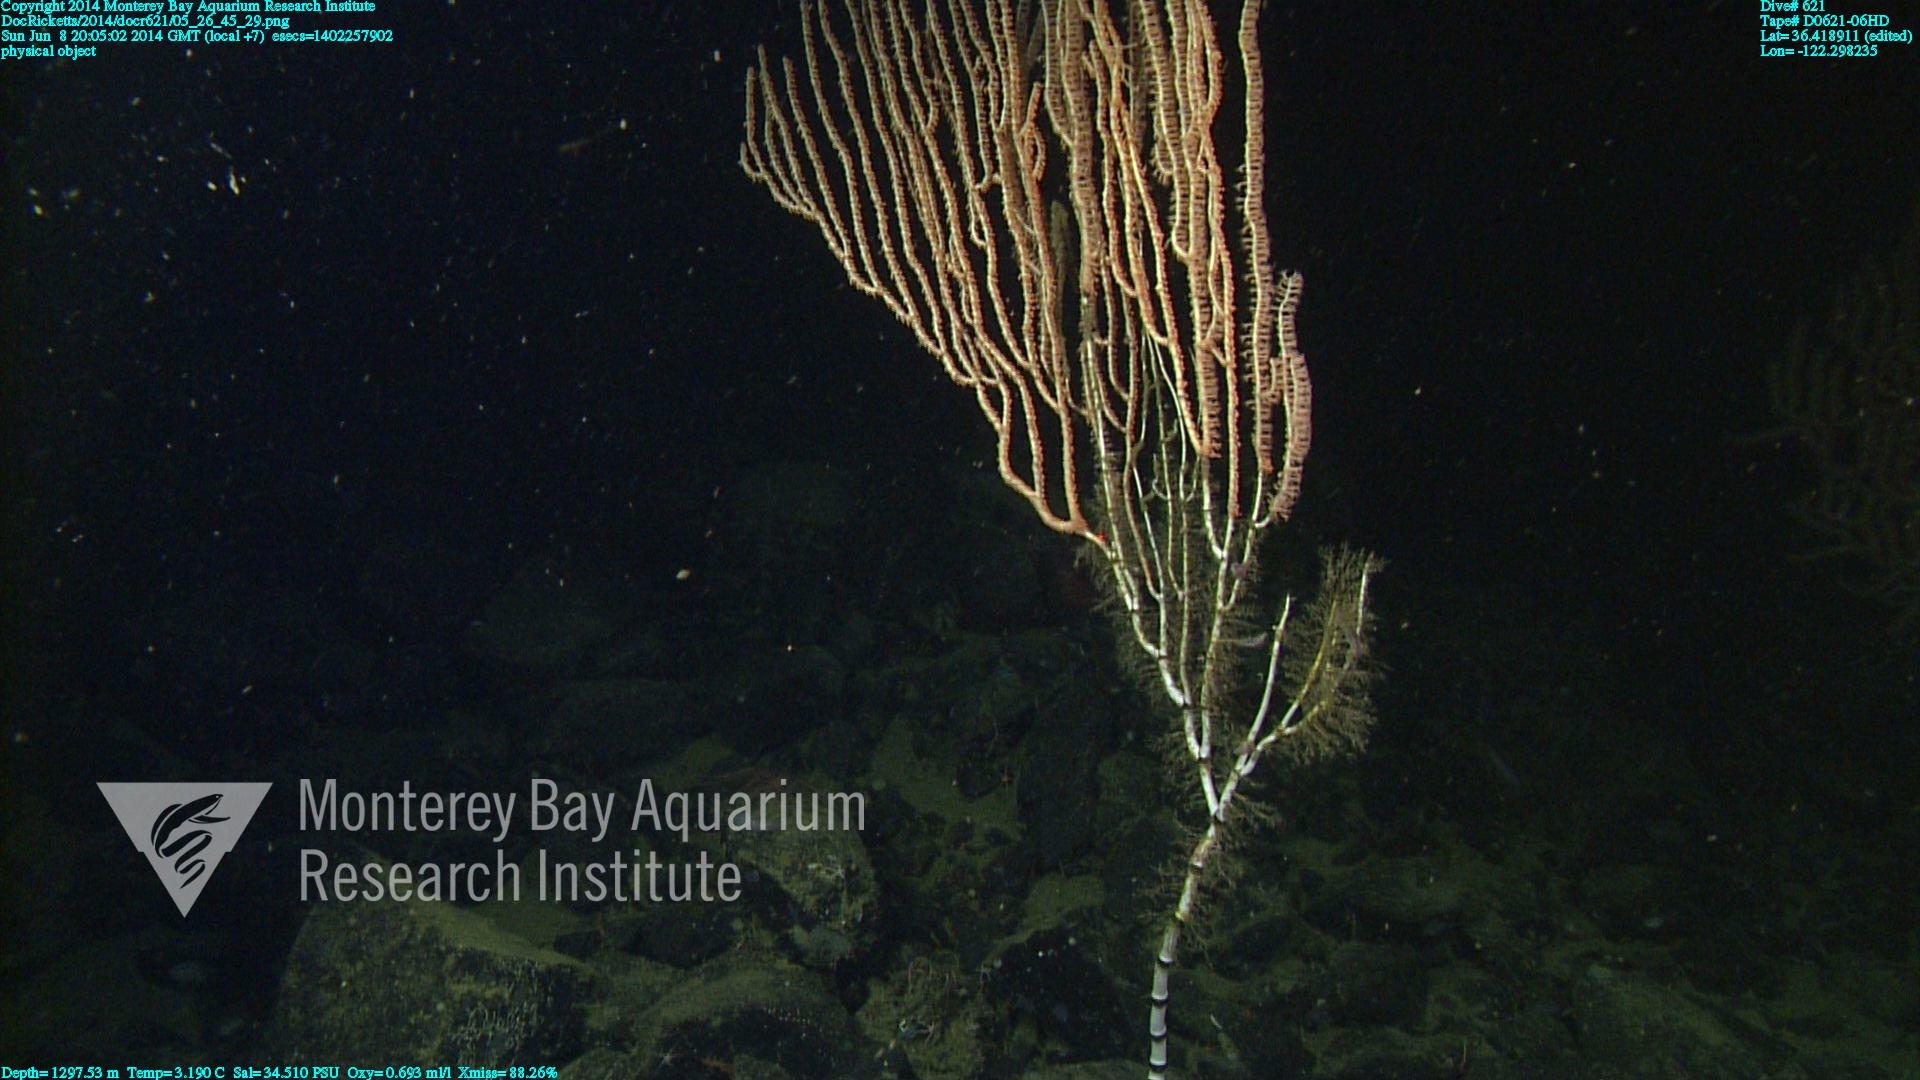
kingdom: Animalia
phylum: Cnidaria
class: Anthozoa
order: Scleralcyonacea
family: Keratoisididae
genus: Isidella
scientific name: Isidella
